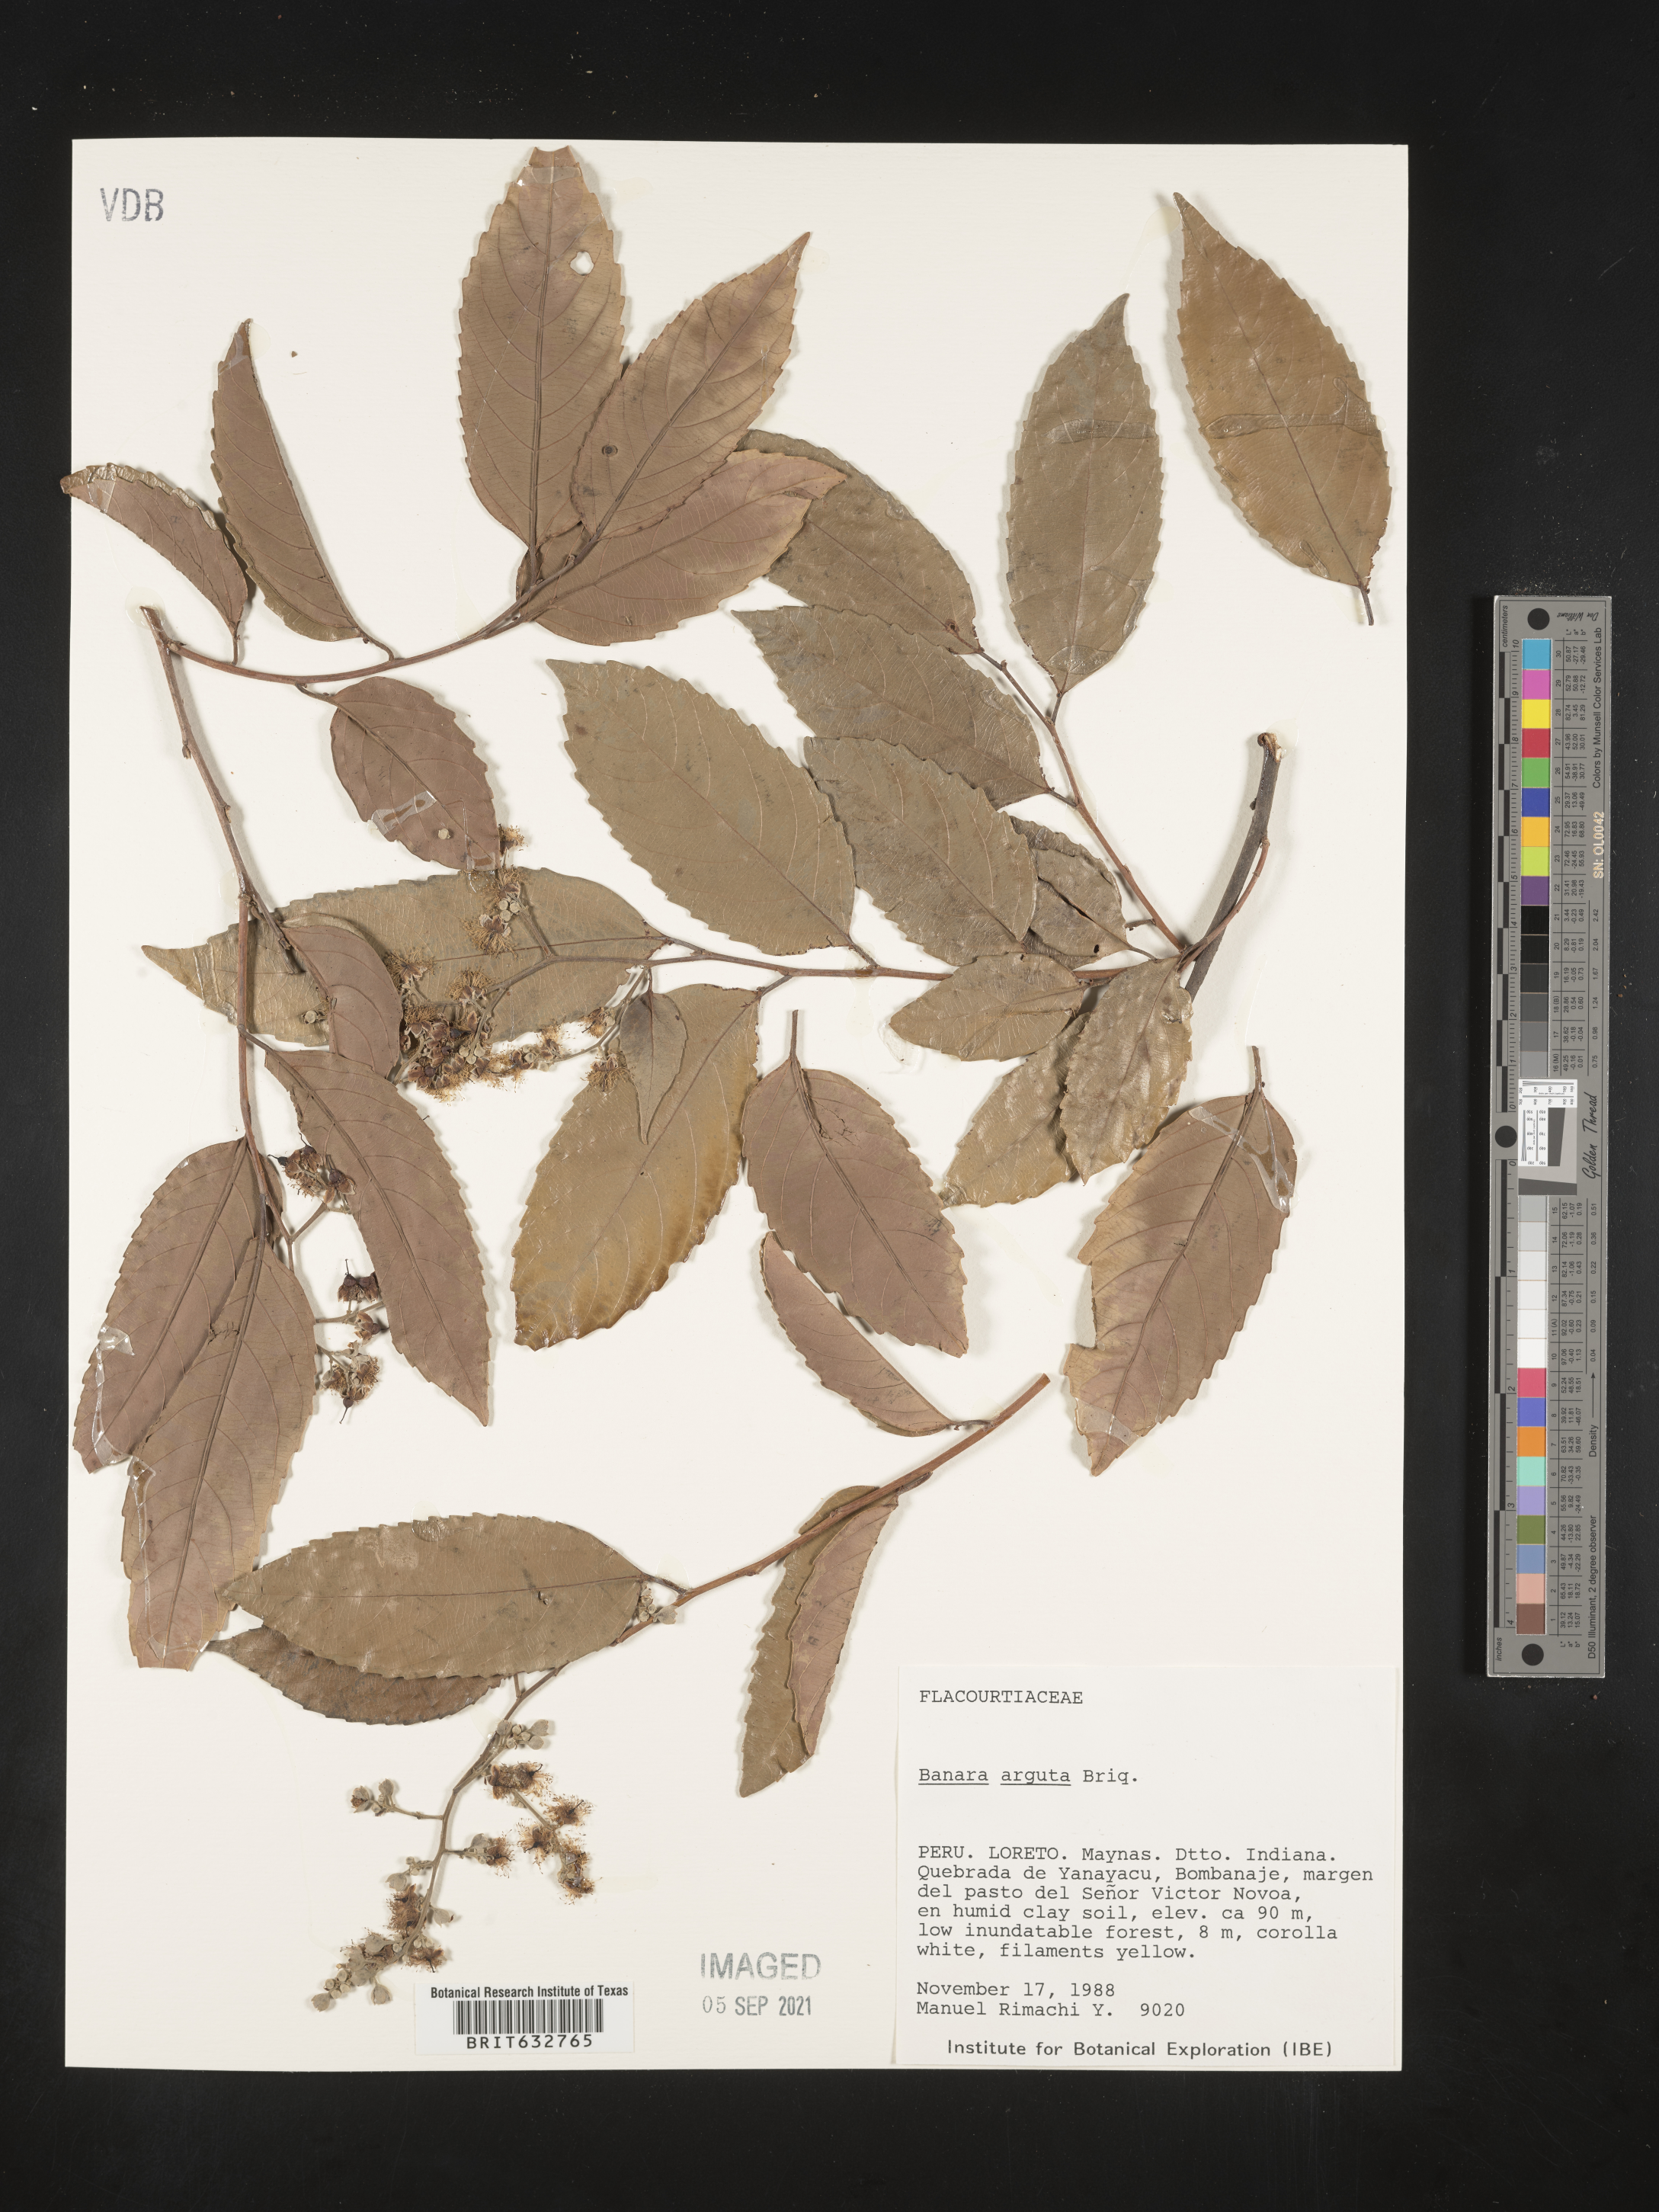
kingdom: Plantae
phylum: Tracheophyta
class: Magnoliopsida
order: Malpighiales
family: Salicaceae
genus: Banara
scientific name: Banara
